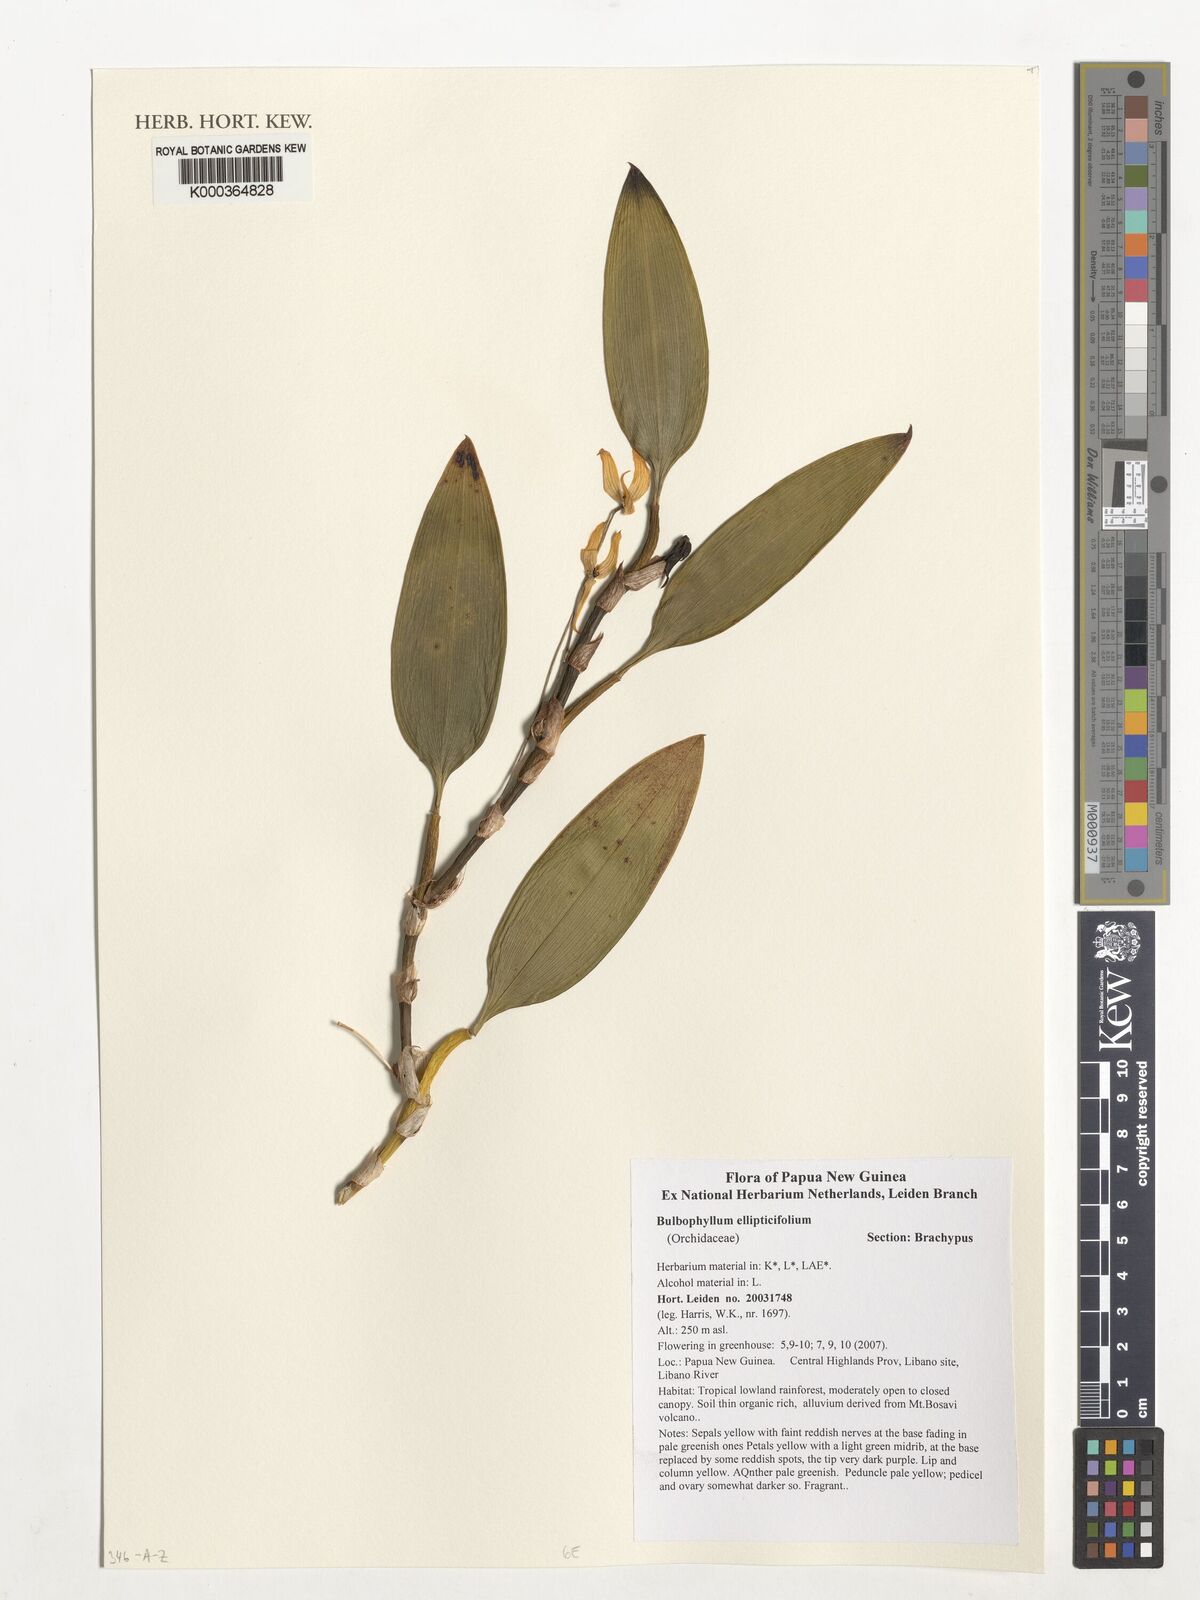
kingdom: Plantae
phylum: Tracheophyta
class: Liliopsida
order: Asparagales
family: Orchidaceae
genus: Bulbophyllum
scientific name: Bulbophyllum ellipticifolium
